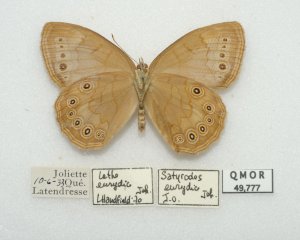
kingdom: Animalia
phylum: Arthropoda
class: Insecta
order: Lepidoptera
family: Nymphalidae
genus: Lethe
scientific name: Lethe eurydice
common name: Eyed Brown
